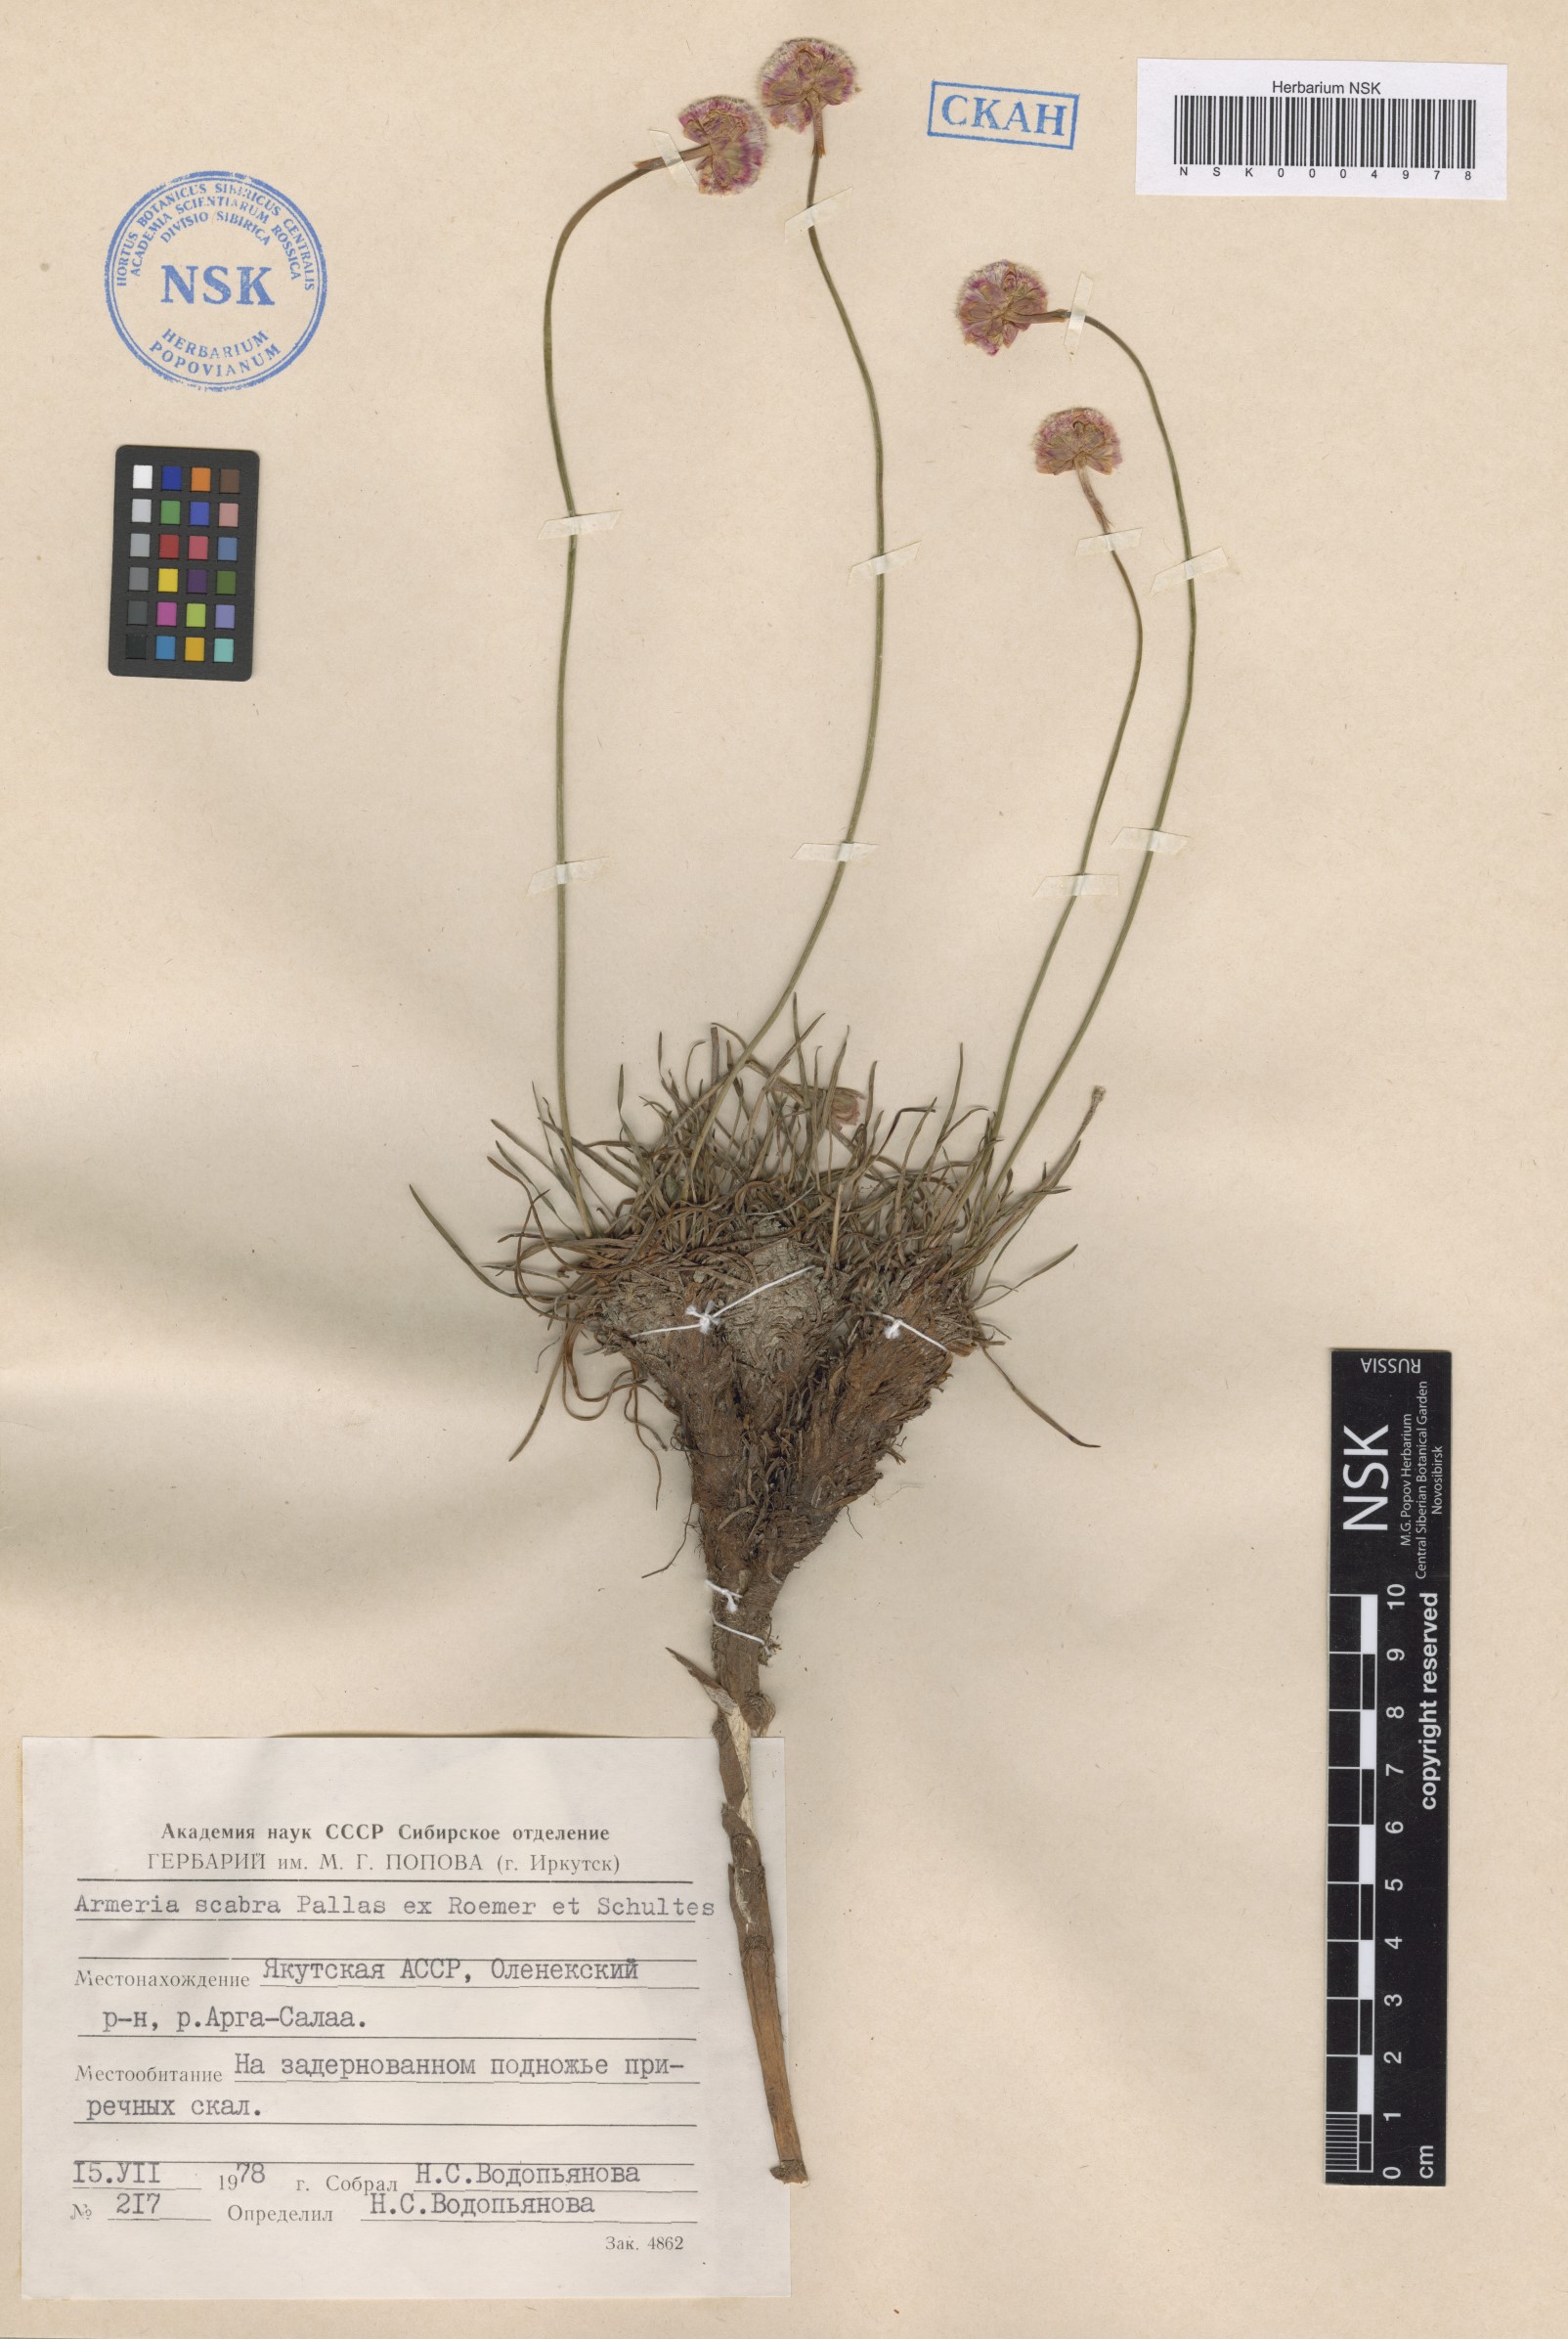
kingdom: Plantae
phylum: Tracheophyta
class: Magnoliopsida
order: Caryophyllales
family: Plumbaginaceae
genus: Armeria
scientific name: Armeria maritima
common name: Thrift
